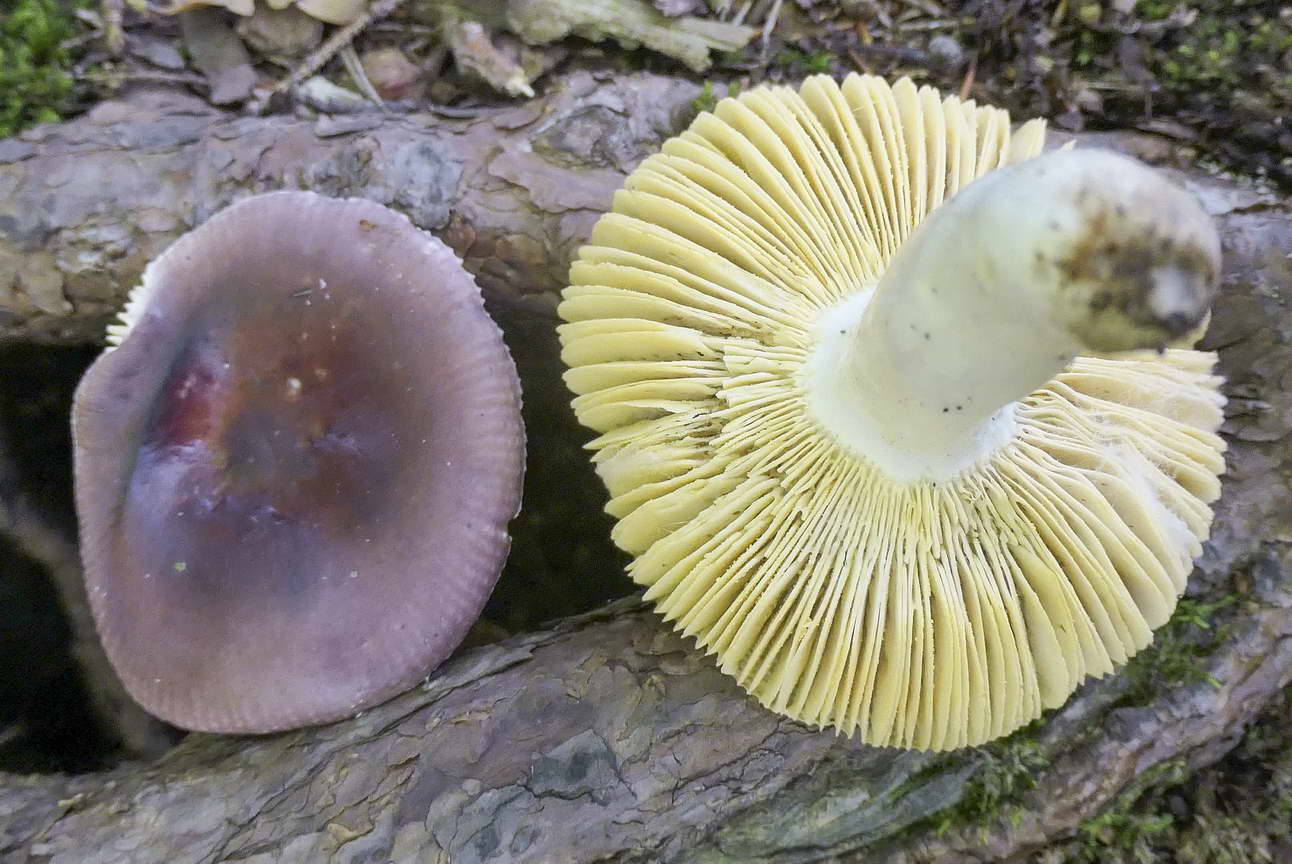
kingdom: Fungi
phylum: Basidiomycota
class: Agaricomycetes
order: Russulales
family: Russulaceae
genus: Russula
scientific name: Russula caerulea
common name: puklet skørhat
